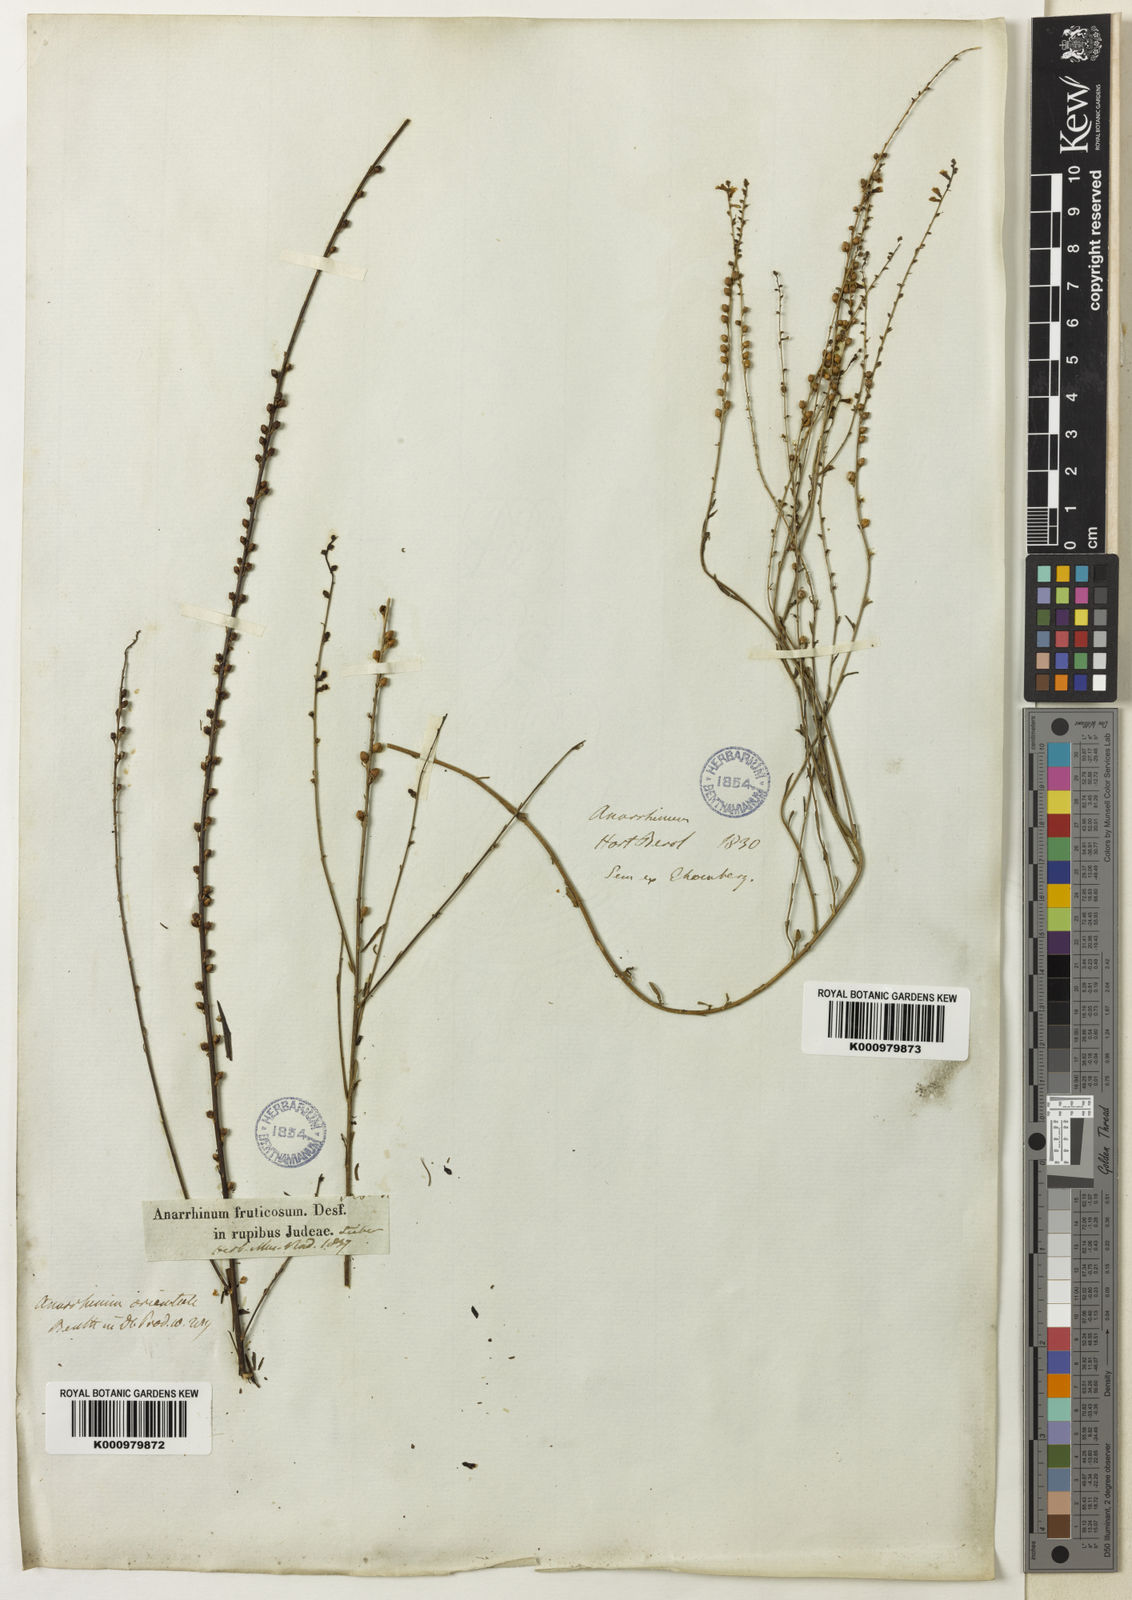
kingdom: Plantae
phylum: Tracheophyta
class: Magnoliopsida
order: Lamiales
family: Plantaginaceae
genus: Anarrhinum
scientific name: Anarrhinum forskaohlii
